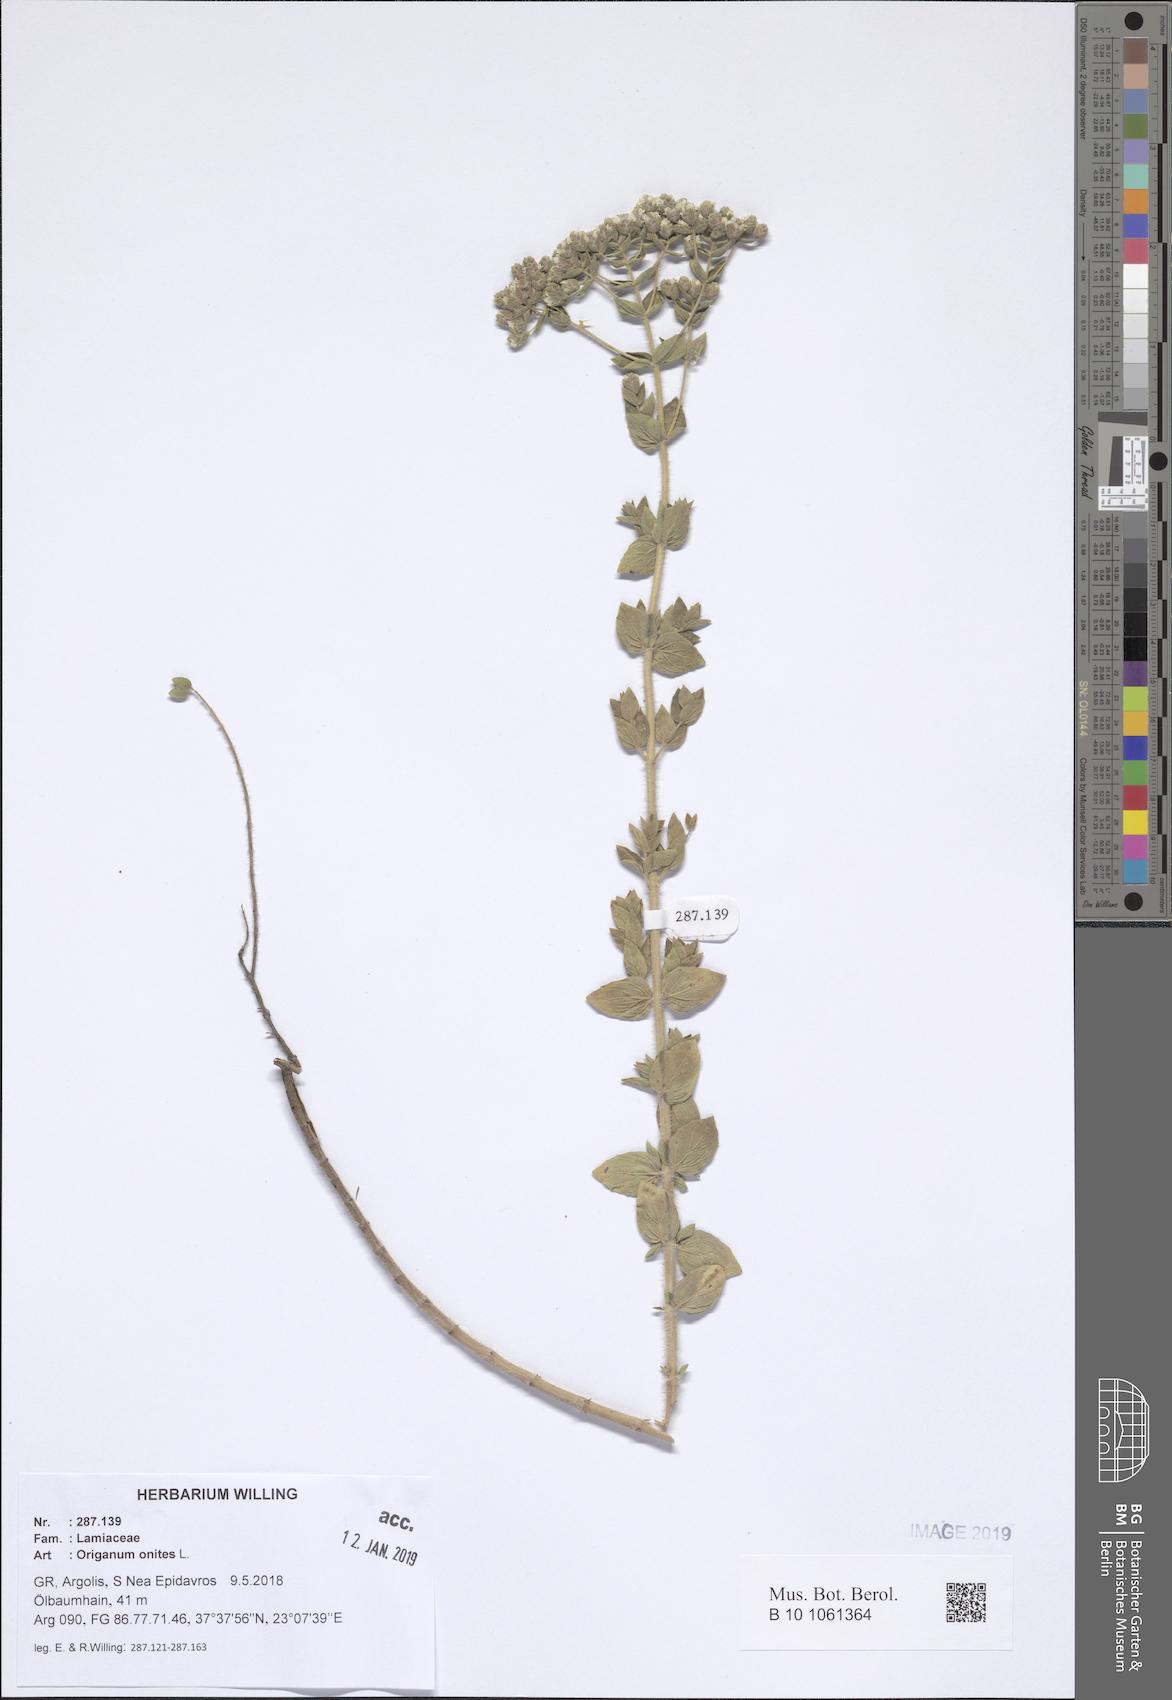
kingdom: Plantae
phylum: Tracheophyta
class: Magnoliopsida
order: Lamiales
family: Lamiaceae
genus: Origanum
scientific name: Origanum onites
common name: Turkish oregano
